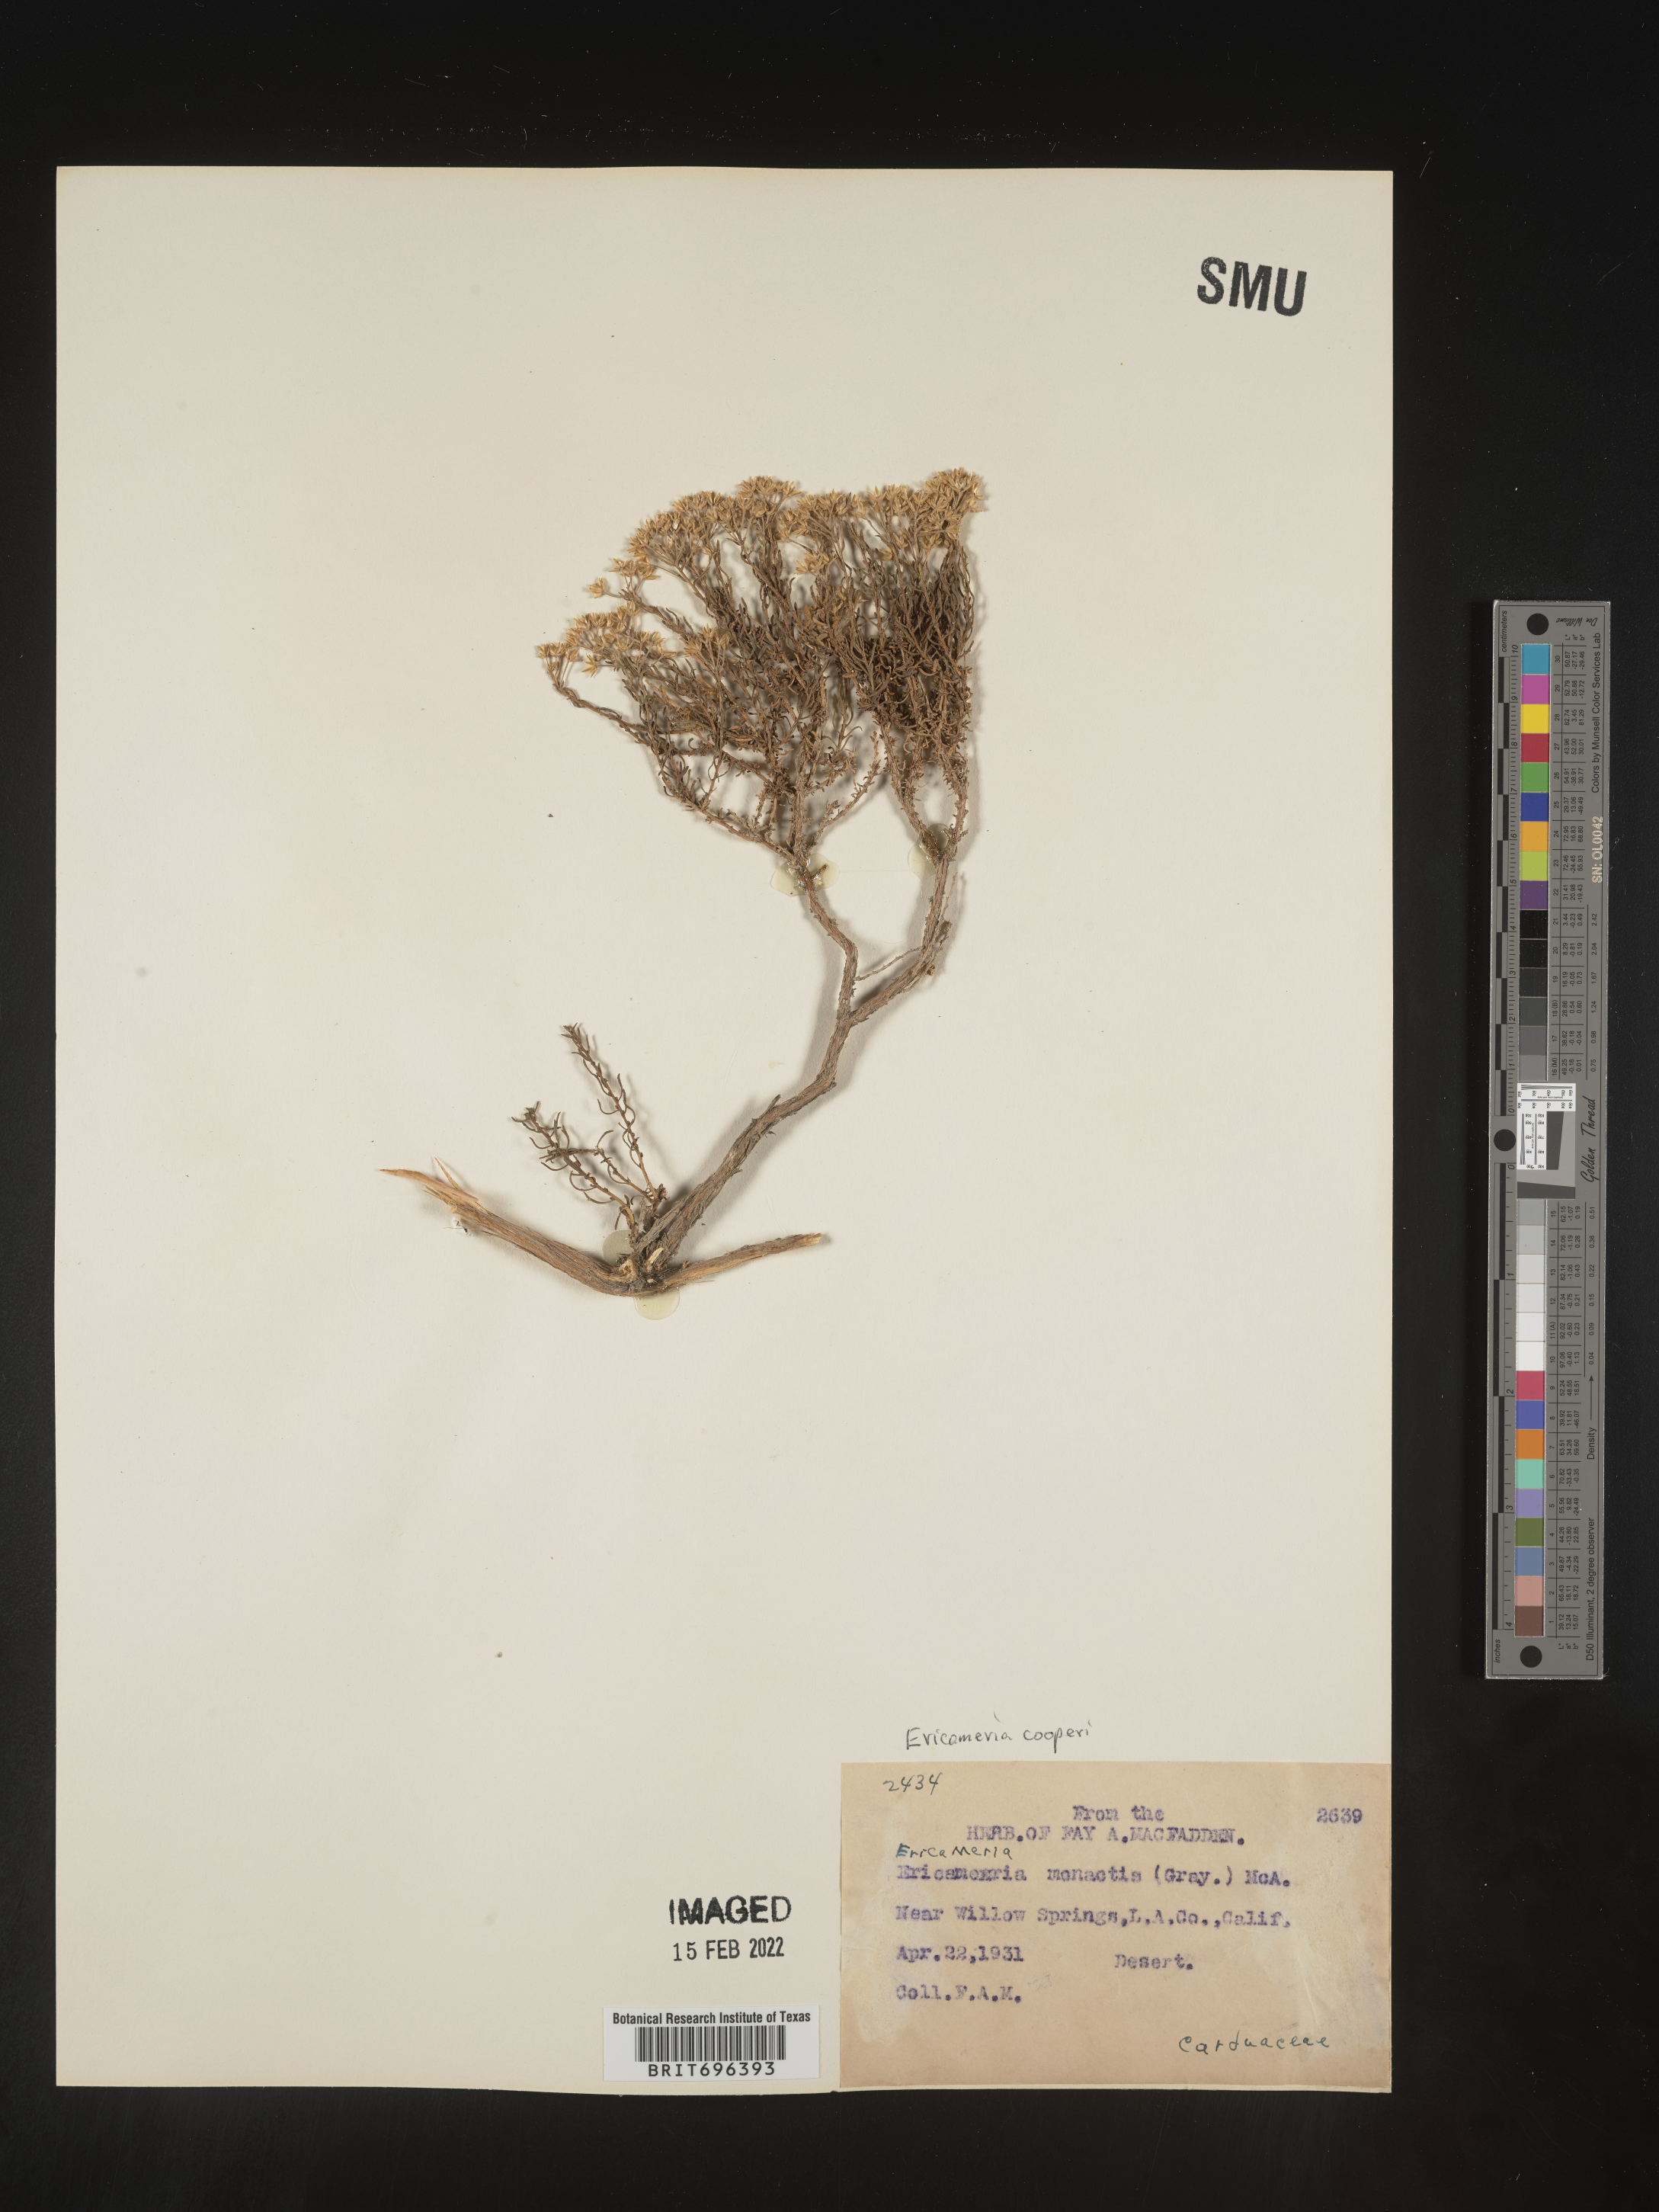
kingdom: Plantae
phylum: Tracheophyta
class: Magnoliopsida
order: Asterales
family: Asteraceae
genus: Ericameria
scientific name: Ericameria cooperi
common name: Cooper's goldenbush
